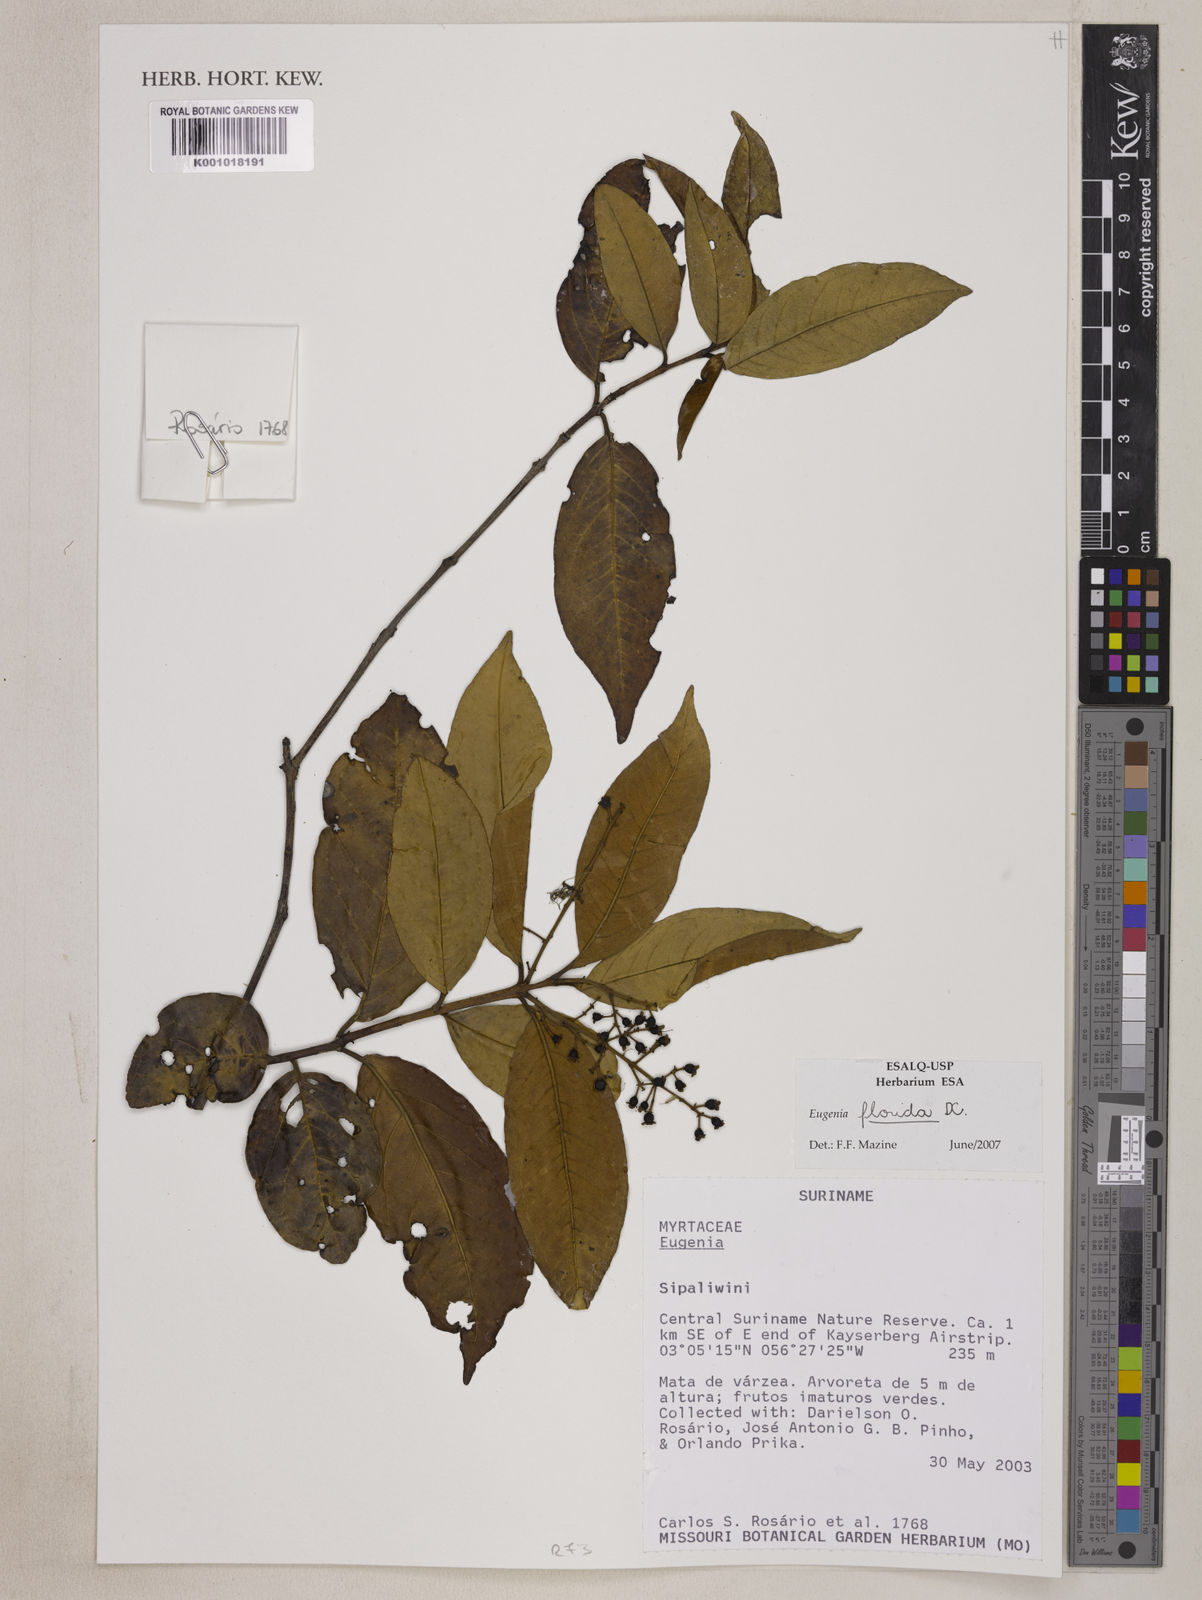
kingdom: Plantae
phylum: Tracheophyta
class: Magnoliopsida
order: Myrtales
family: Myrtaceae
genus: Eugenia
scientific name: Eugenia florida
